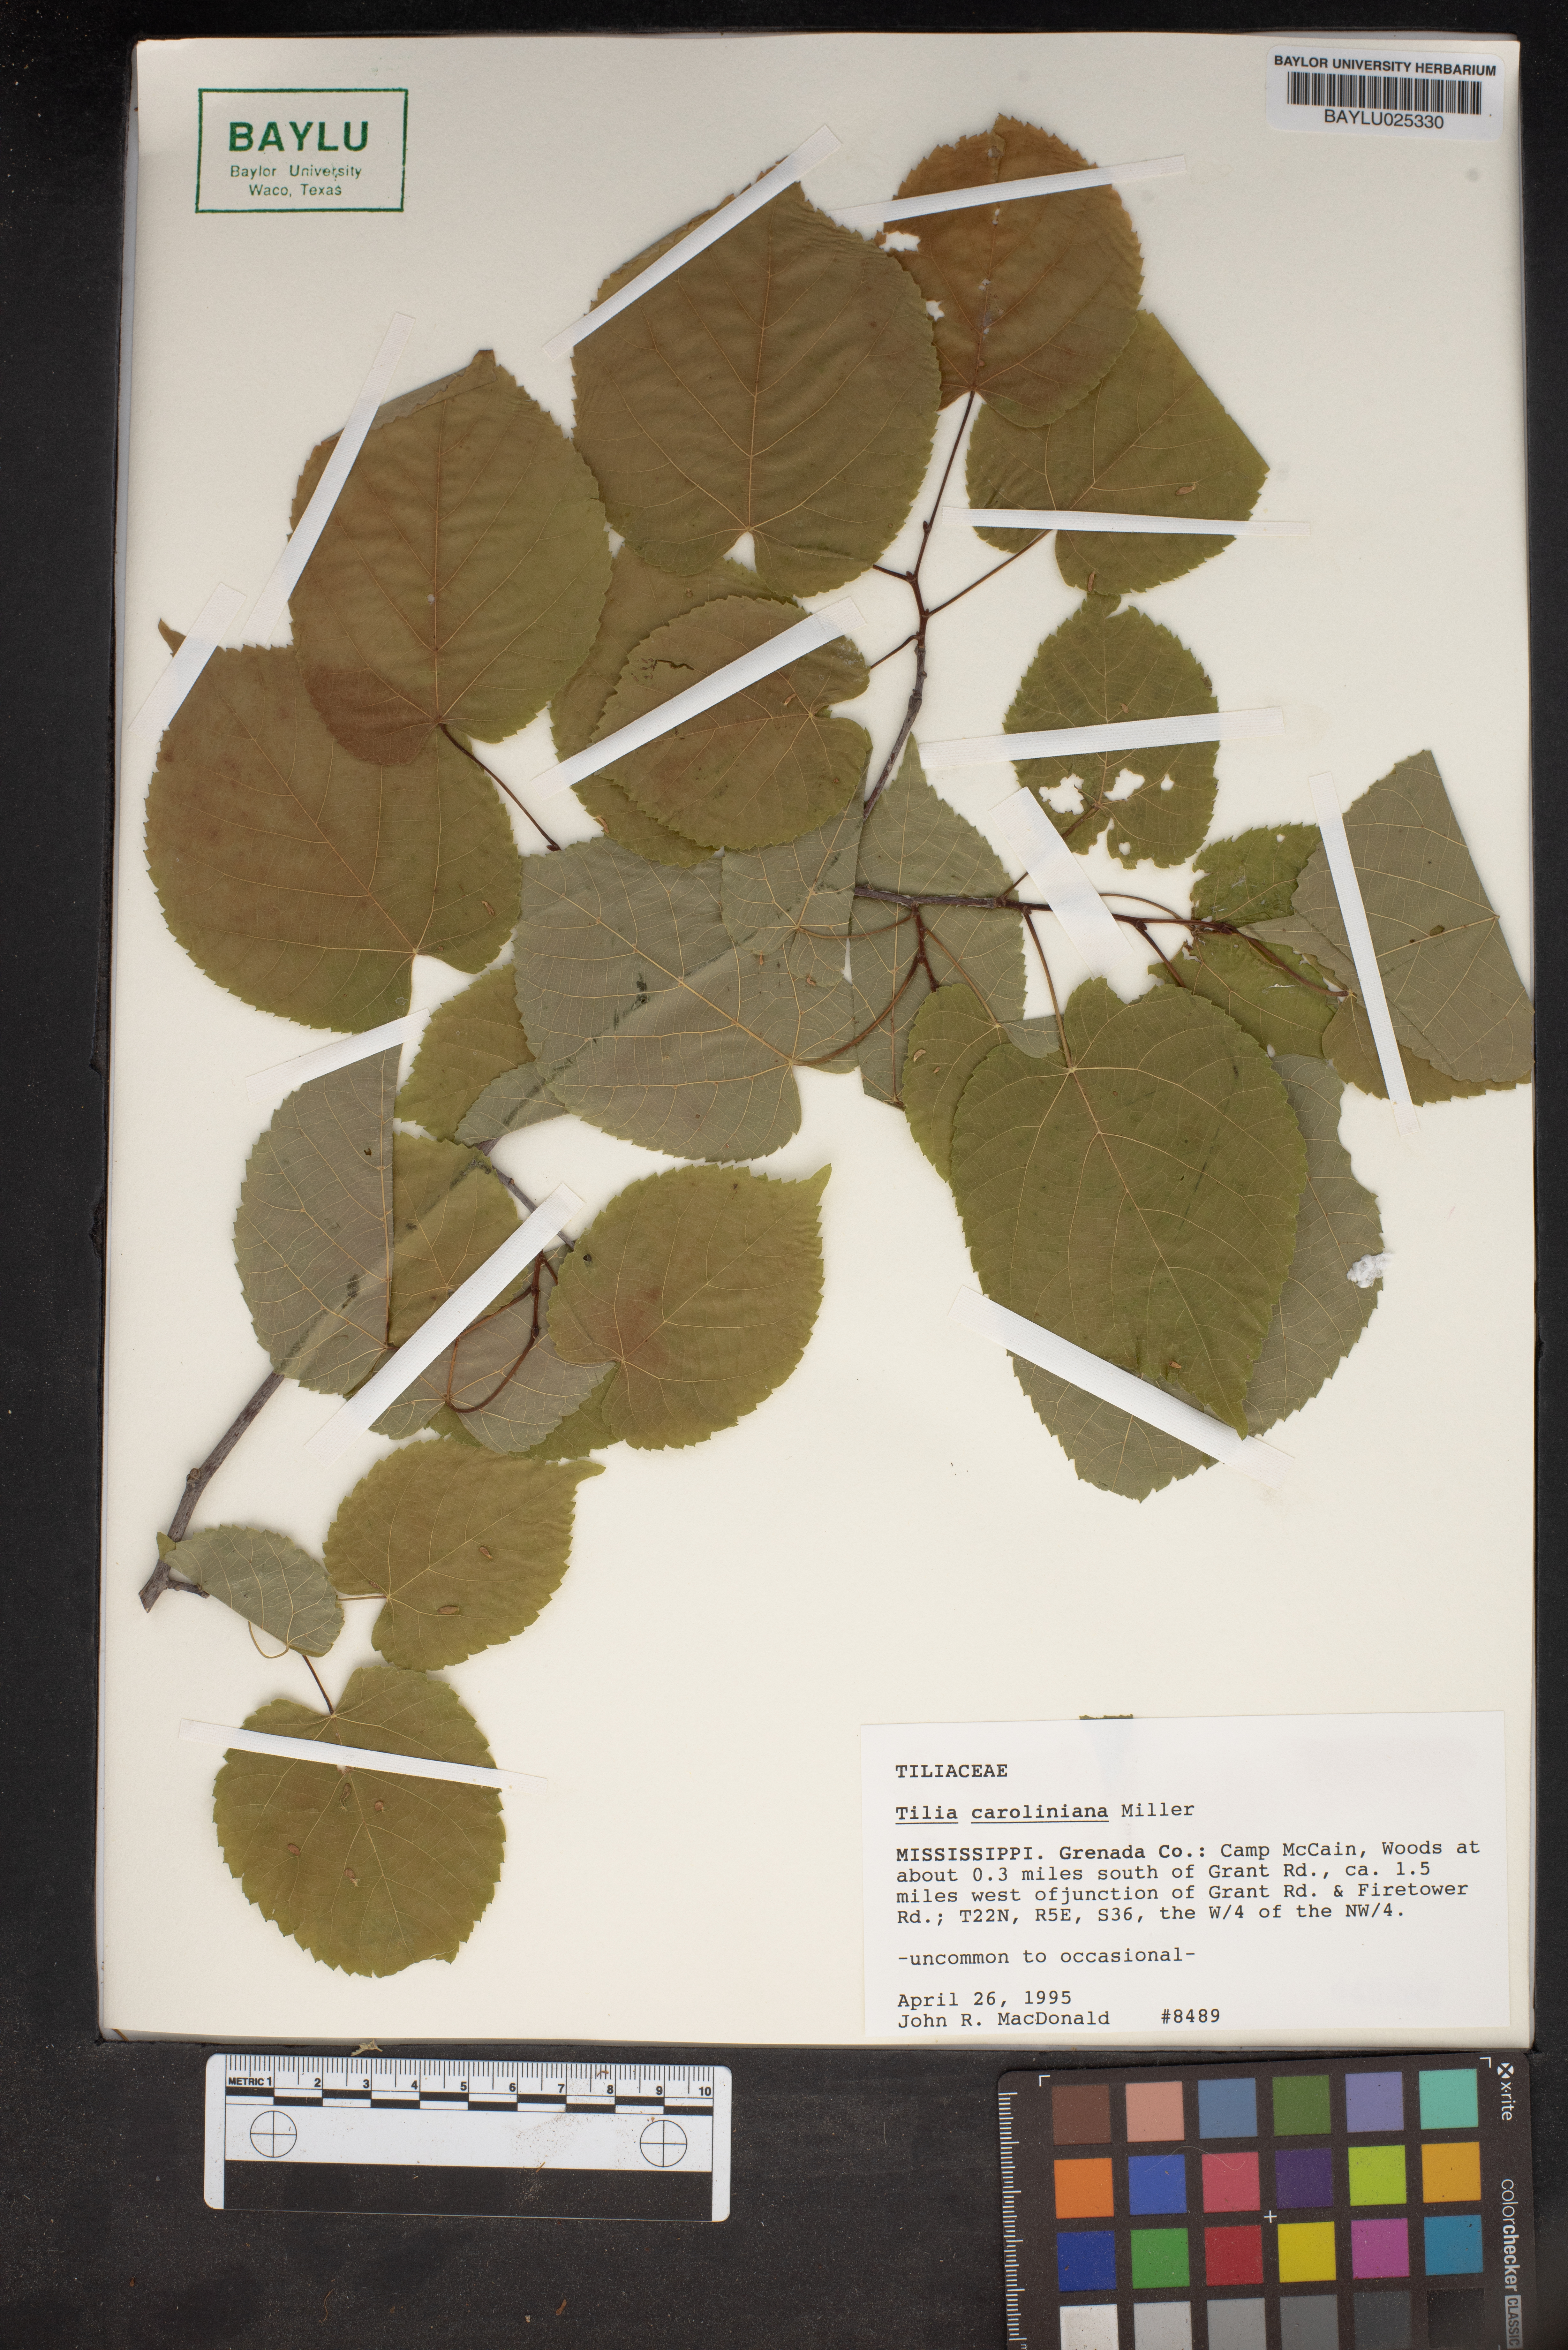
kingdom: Plantae
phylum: Tracheophyta
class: Magnoliopsida
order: Malvales
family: Malvaceae
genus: Tilia
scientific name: Tilia americana
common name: Basswood
